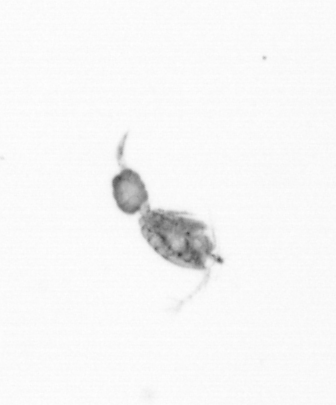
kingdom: Animalia
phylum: Arthropoda
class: Copepoda
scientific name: Copepoda
